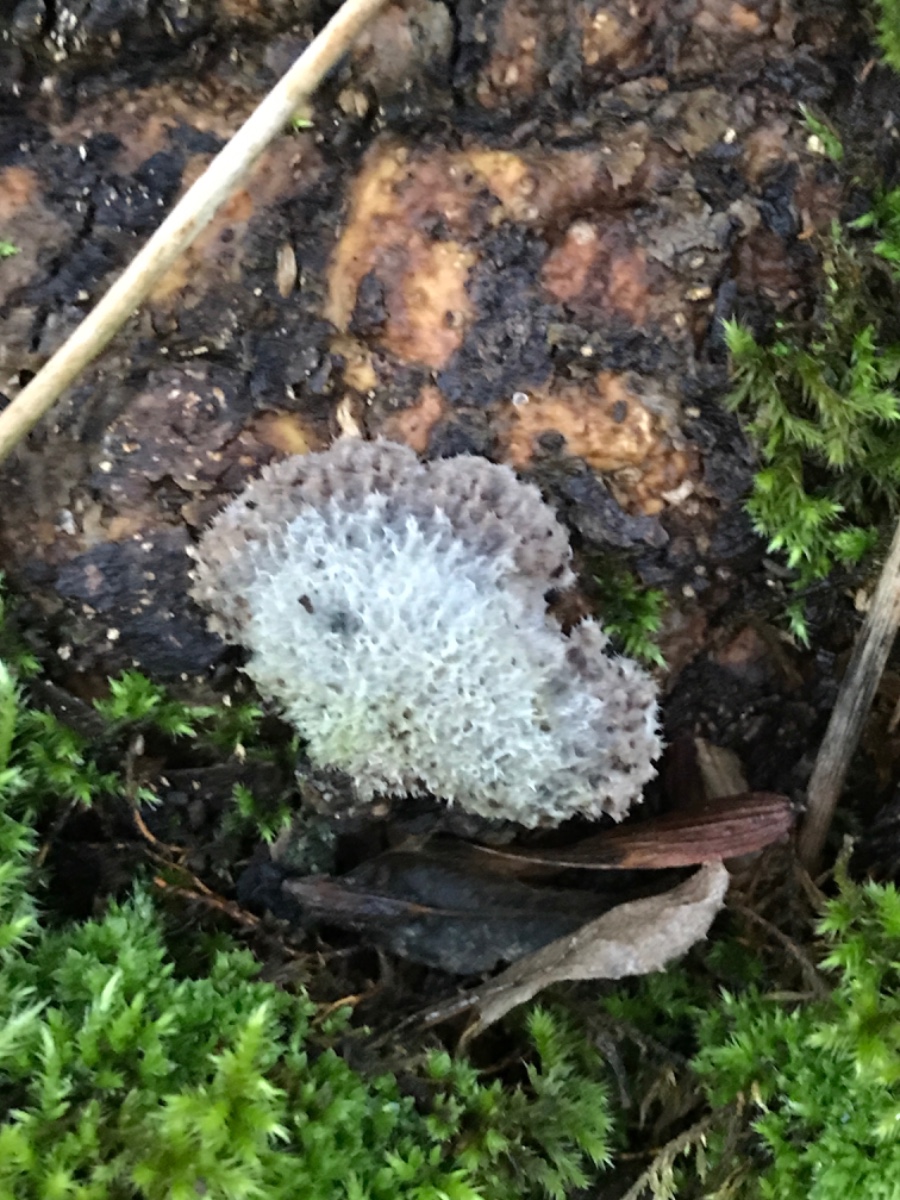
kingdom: Fungi
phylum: Basidiomycota
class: Agaricomycetes
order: Agaricales
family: Schizophyllaceae
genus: Schizophyllum
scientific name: Schizophyllum commune
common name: kløvblad
